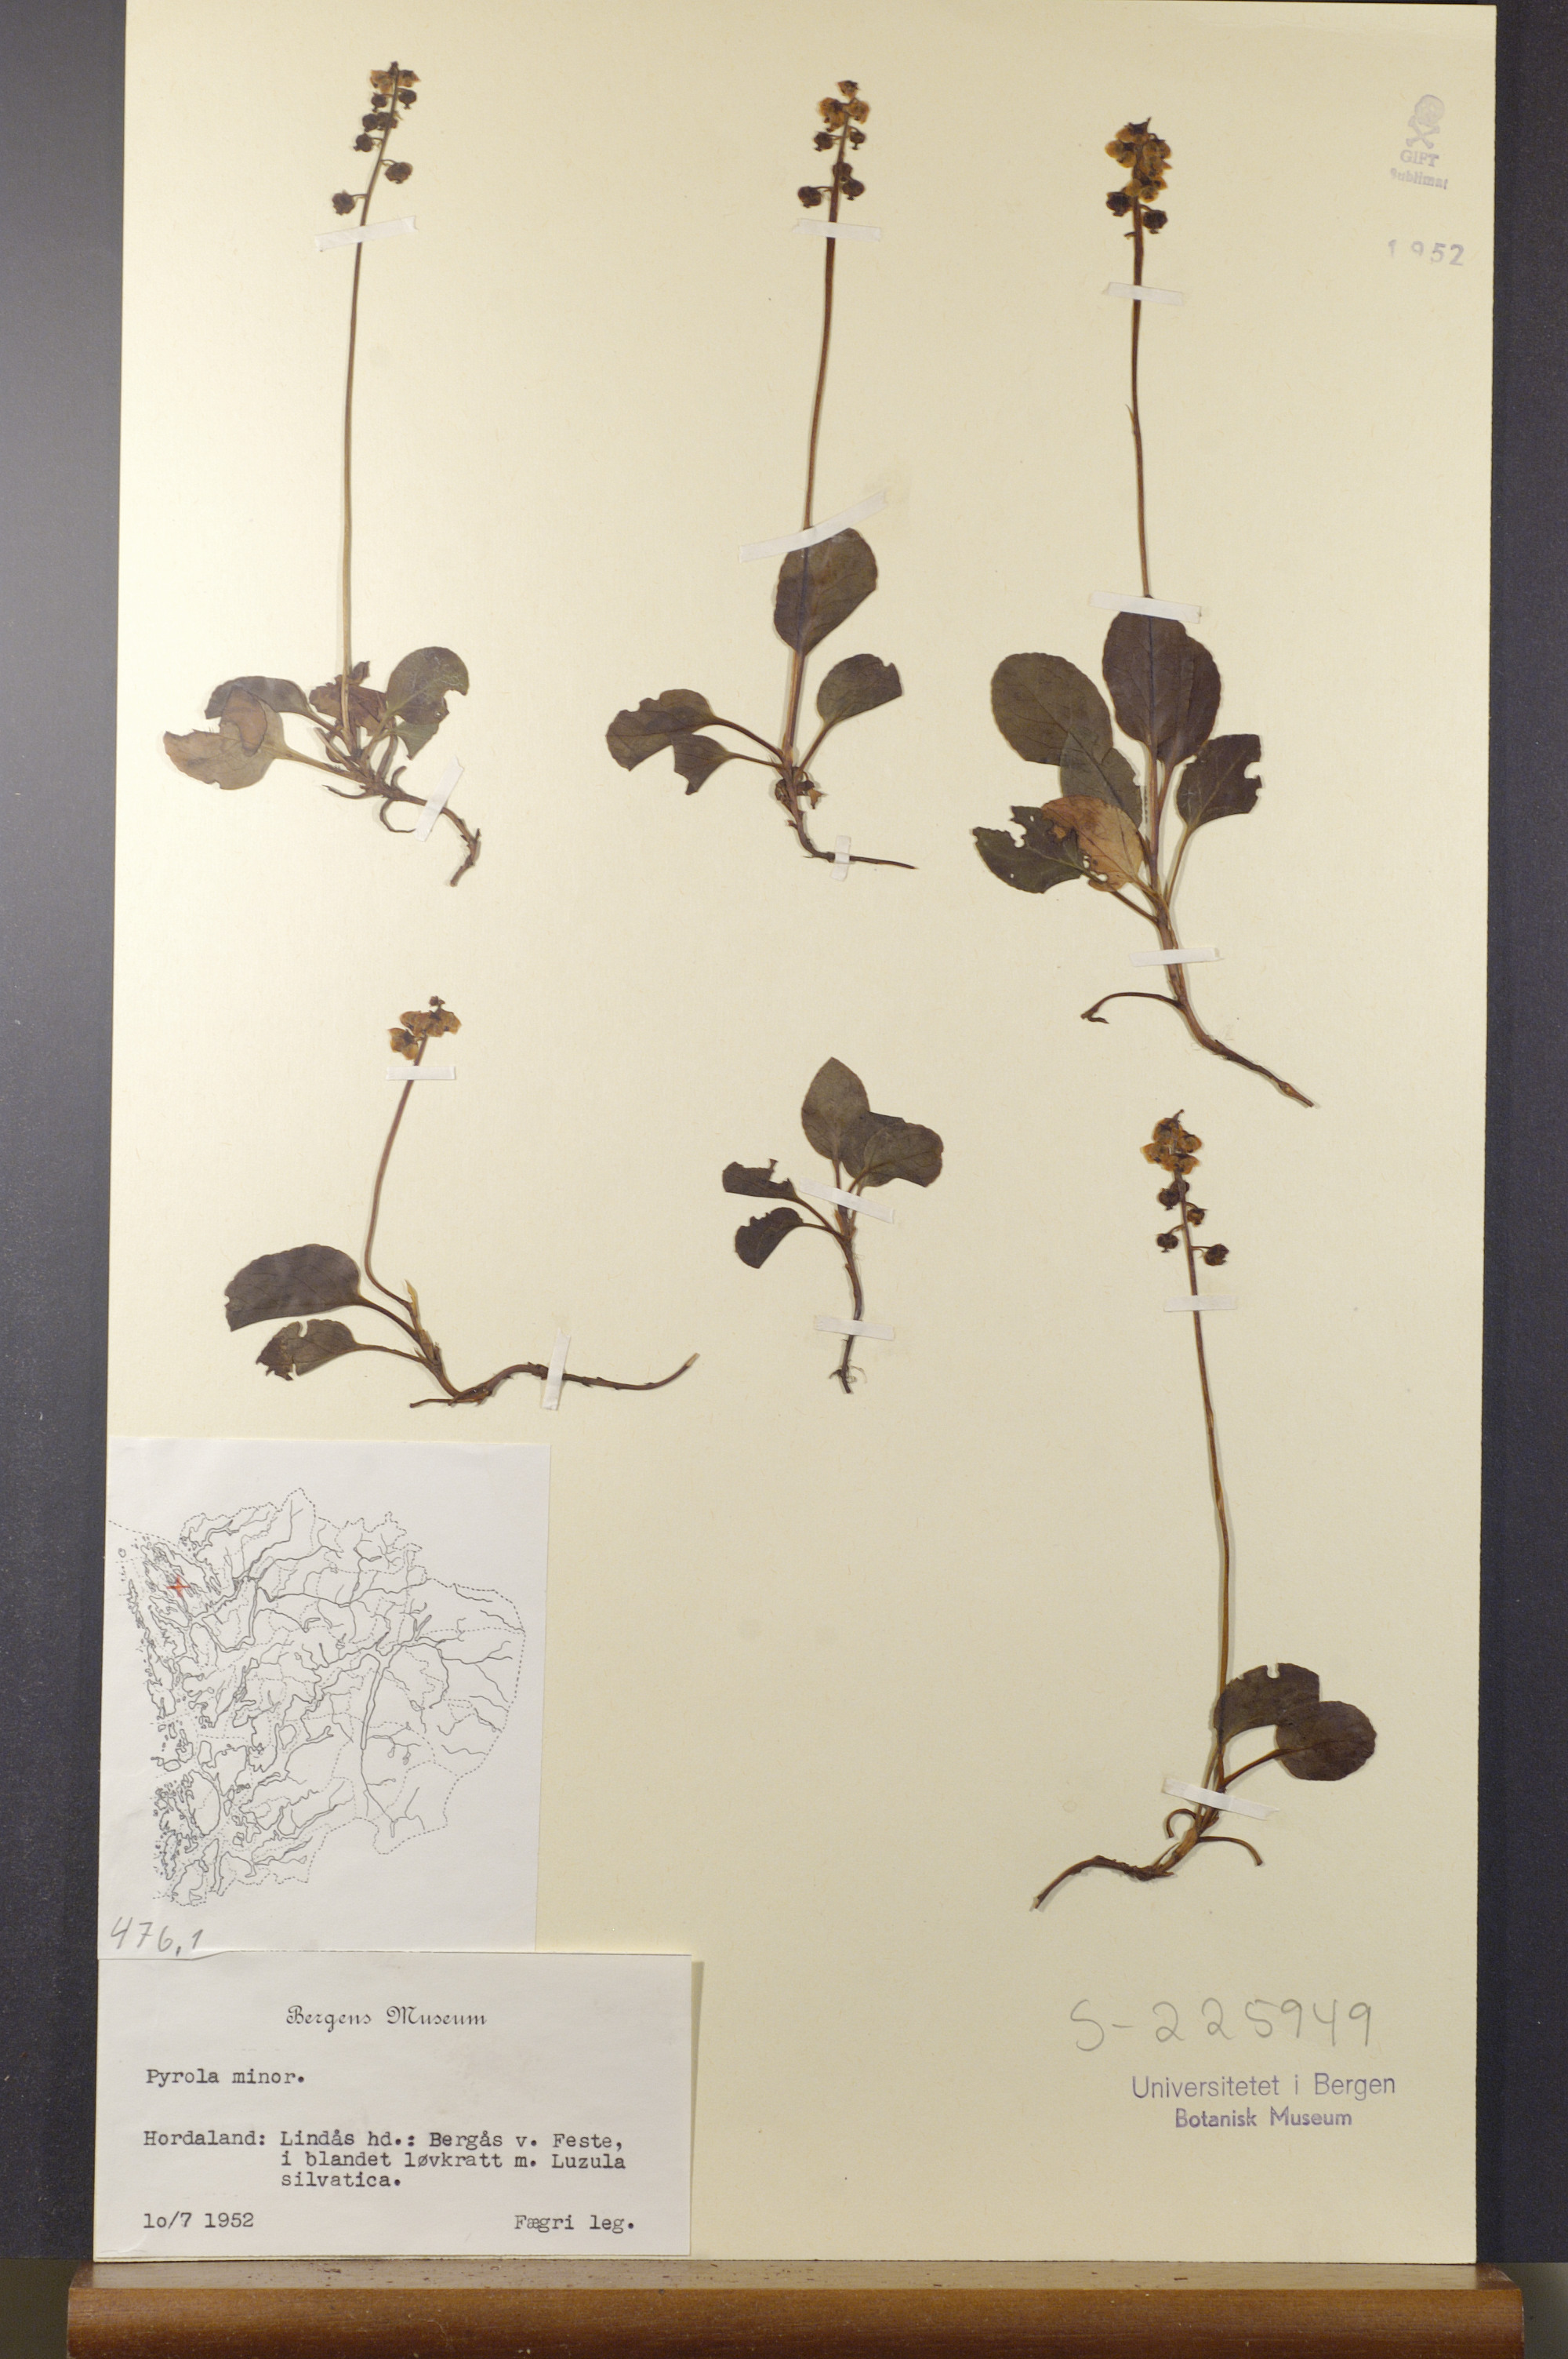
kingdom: Plantae
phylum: Tracheophyta
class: Magnoliopsida
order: Ericales
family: Ericaceae
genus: Pyrola
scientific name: Pyrola minor
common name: Common wintergreen
